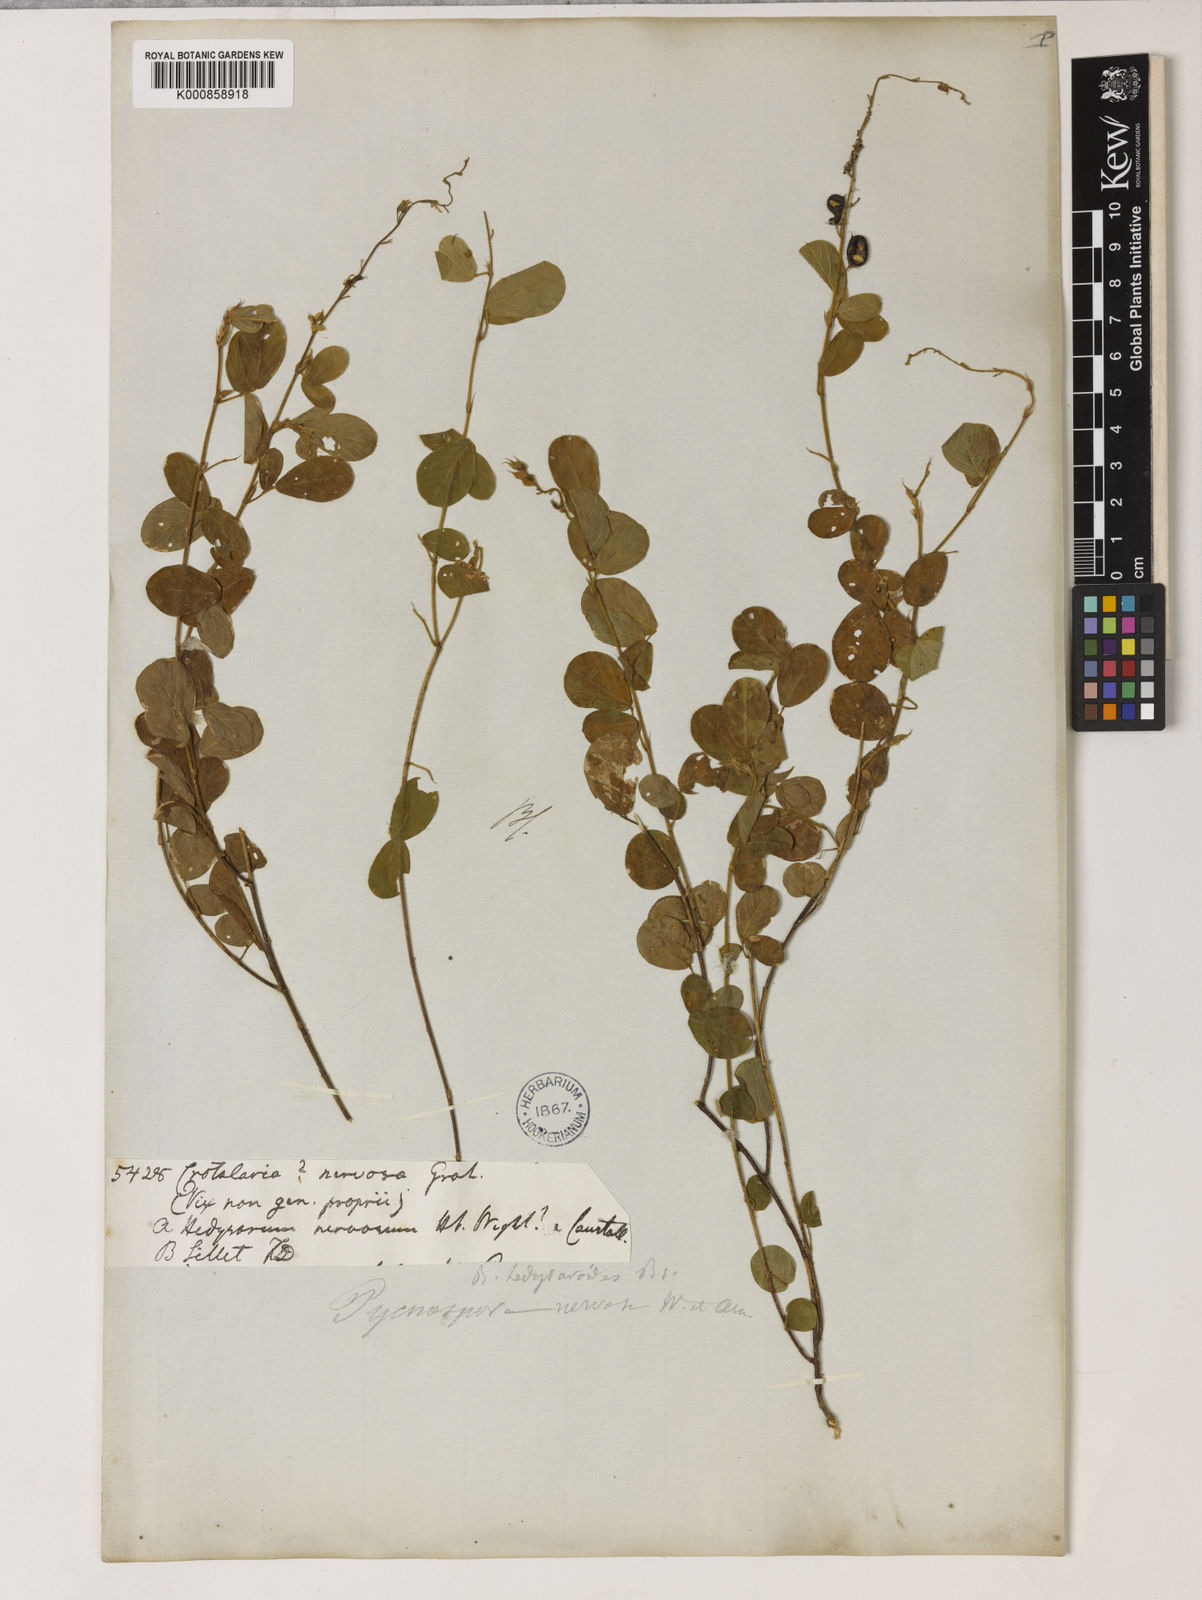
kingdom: Plantae
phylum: Tracheophyta
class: Magnoliopsida
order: Fabales
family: Fabaceae
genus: Pycnospora
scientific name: Pycnospora lutescens
